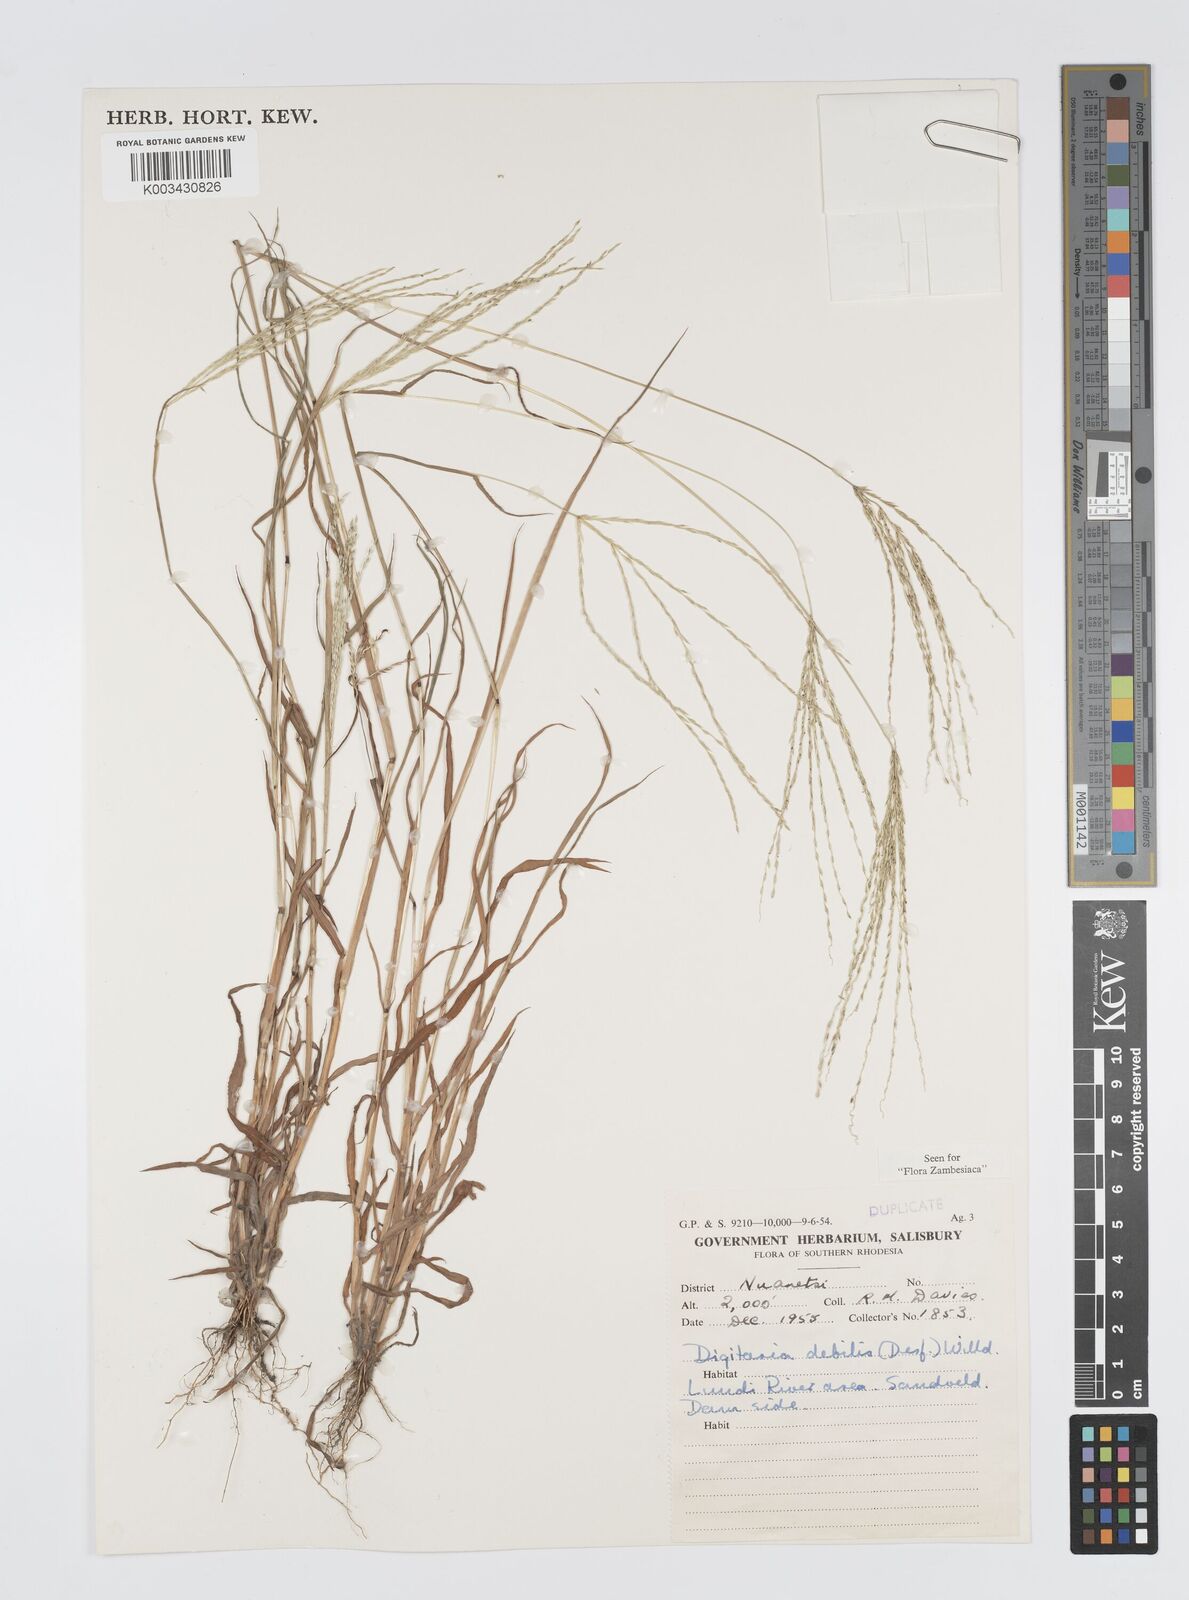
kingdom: Plantae
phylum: Tracheophyta
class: Liliopsida
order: Poales
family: Poaceae
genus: Digitaria
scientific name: Digitaria debilis
